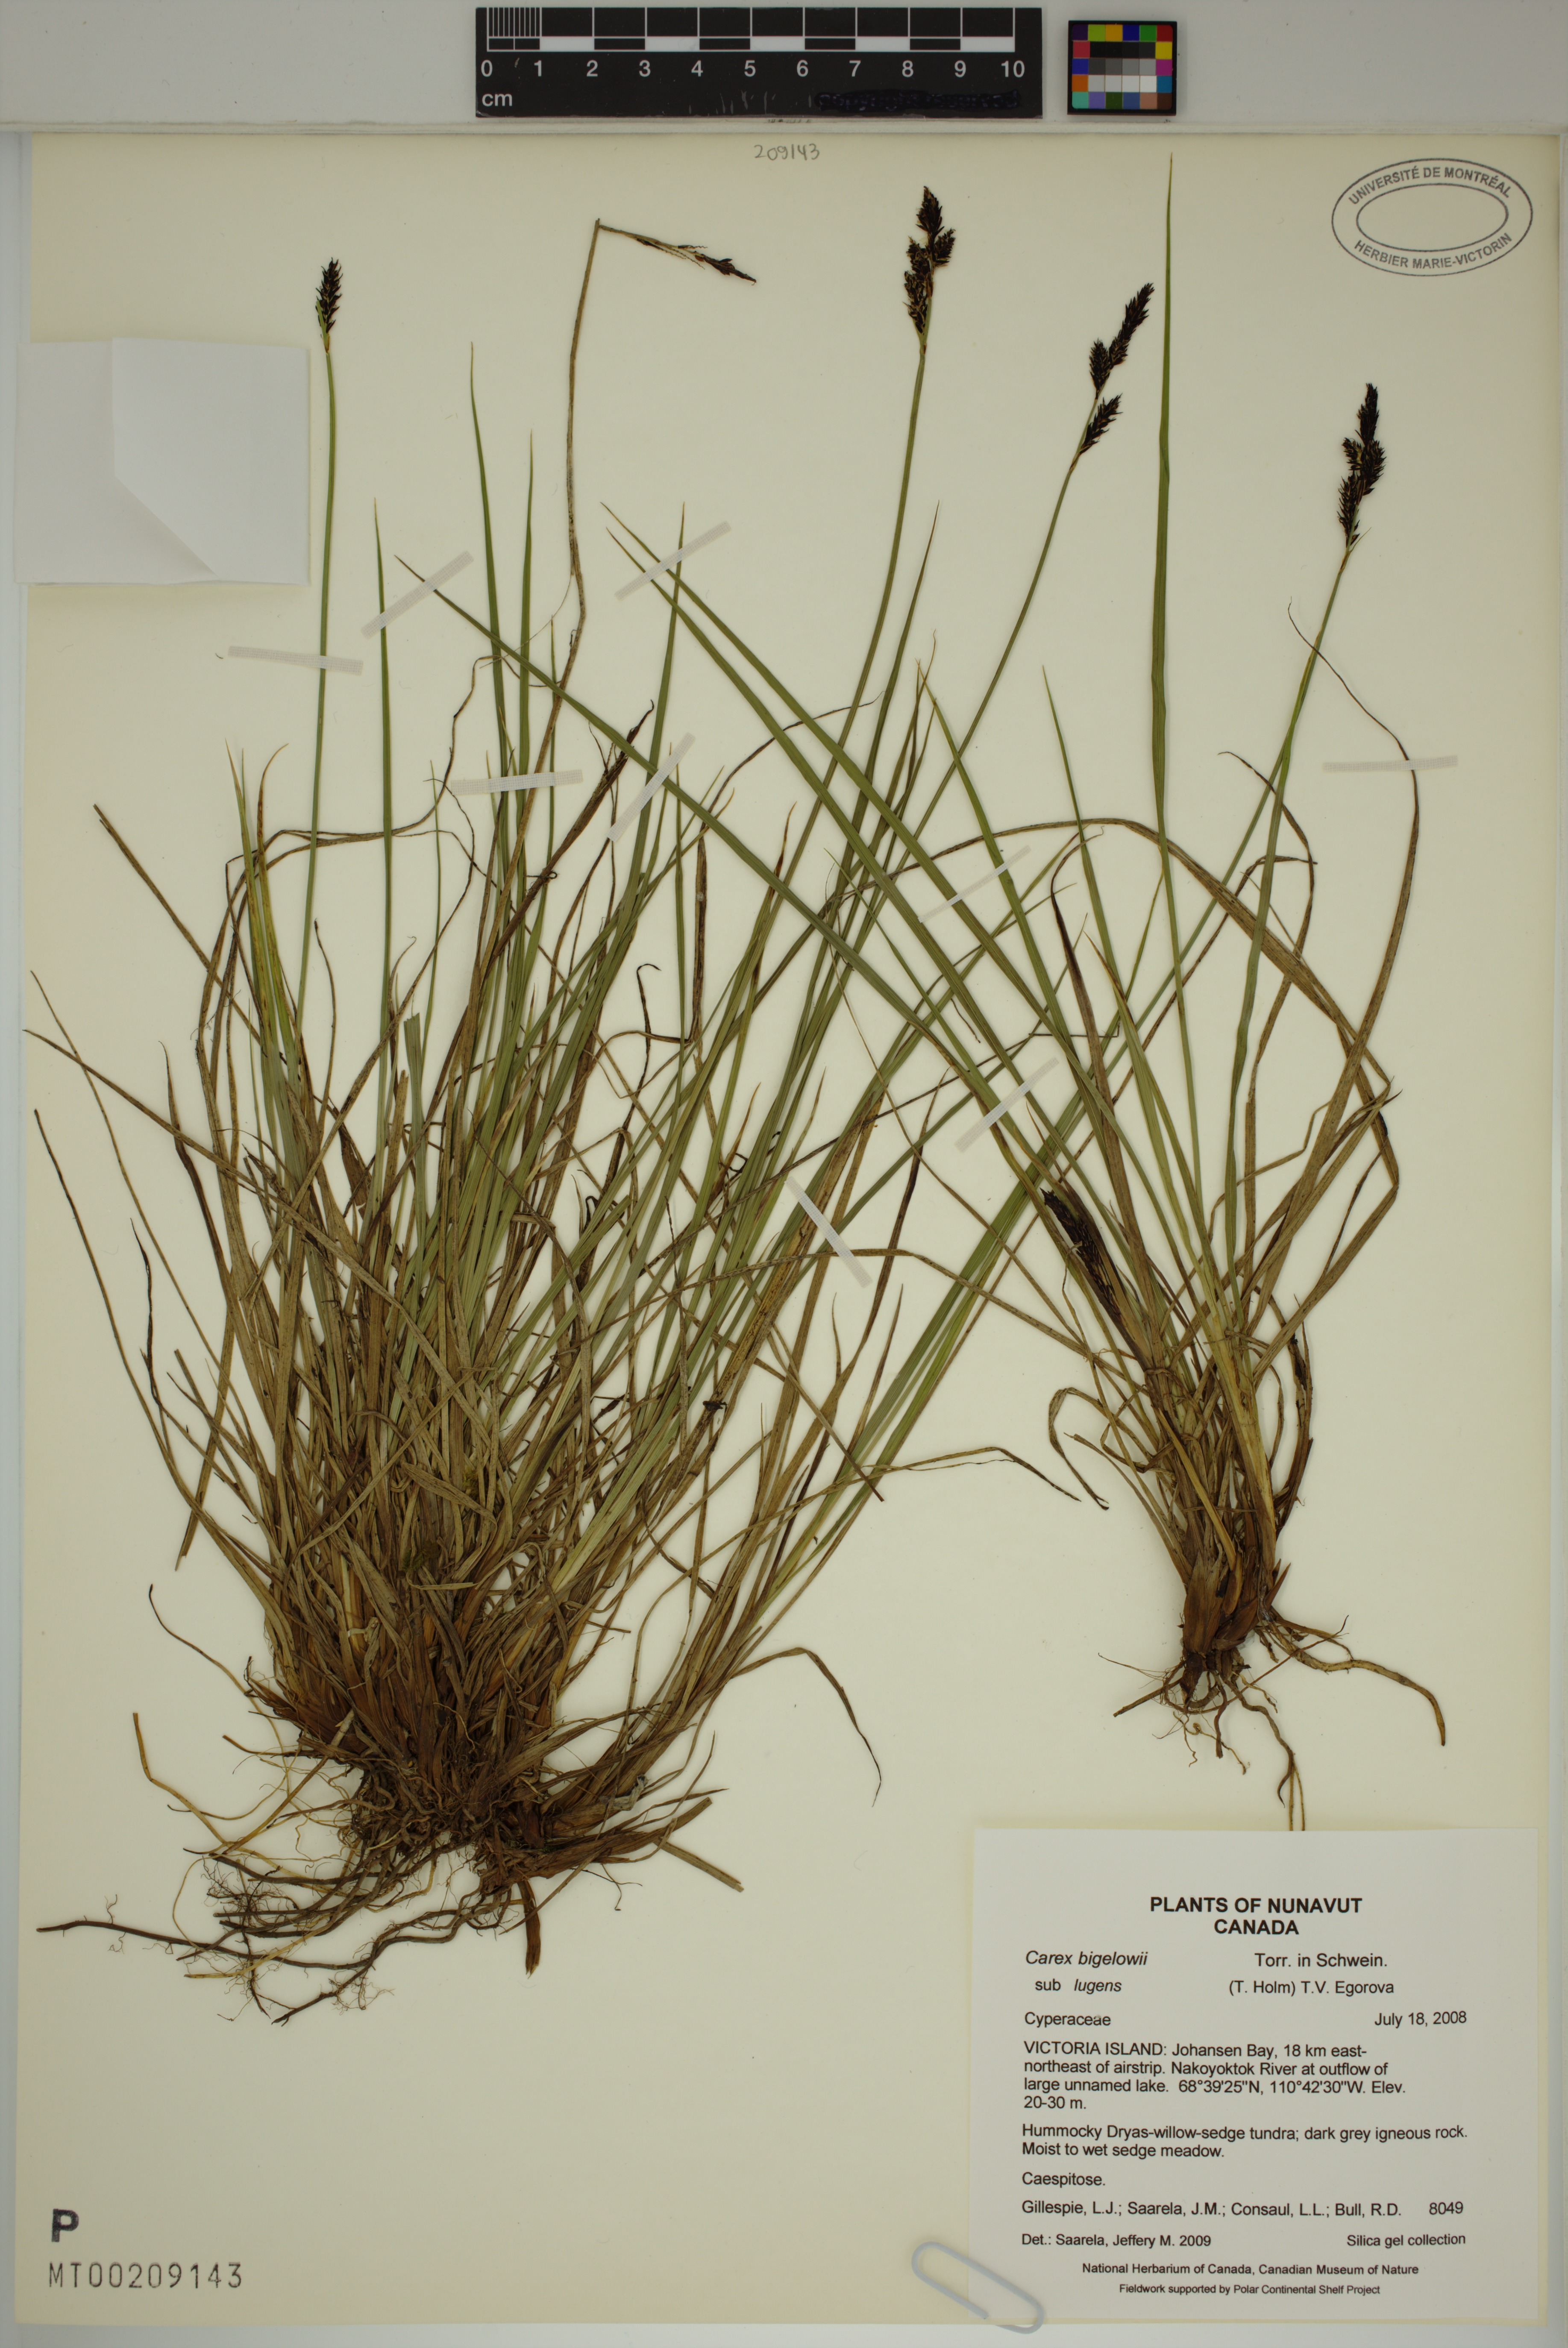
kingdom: Plantae
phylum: Tracheophyta
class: Liliopsida
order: Poales
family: Cyperaceae
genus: Carex
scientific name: Carex bigelowii
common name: Stiff sedge
